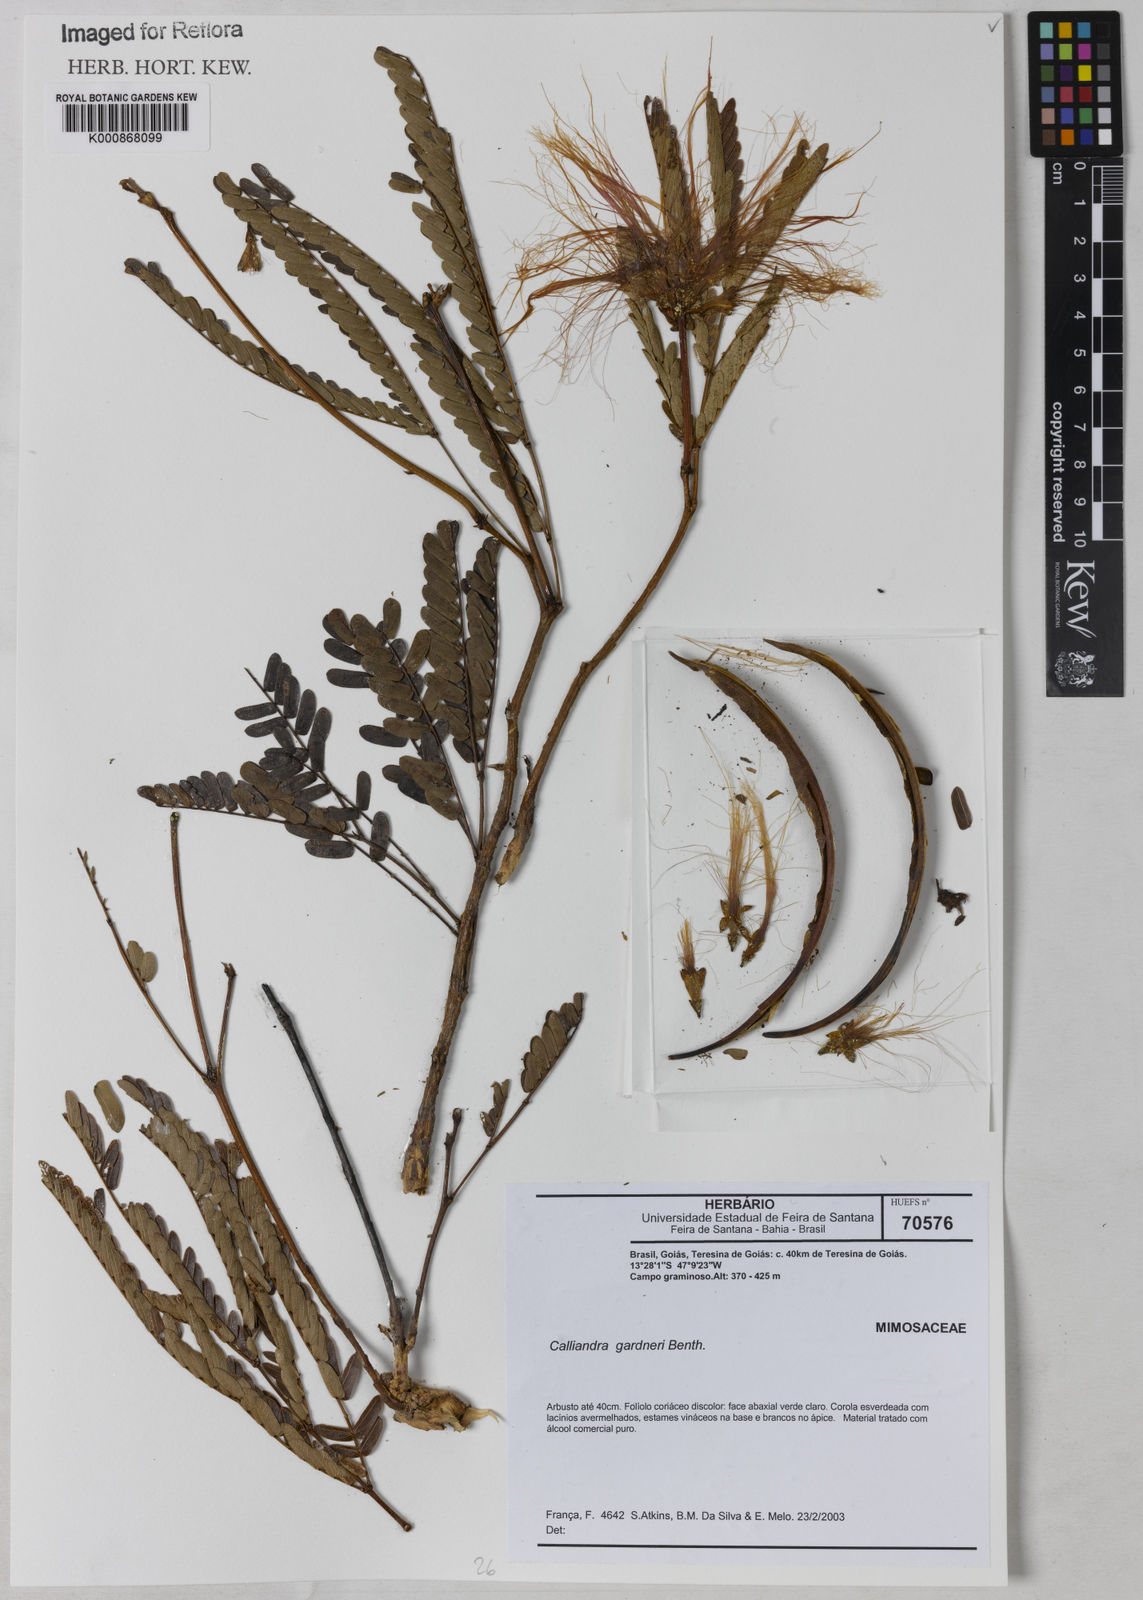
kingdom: Plantae
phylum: Tracheophyta
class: Magnoliopsida
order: Fabales
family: Fabaceae
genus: Calliandra
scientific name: Calliandra gardneri
